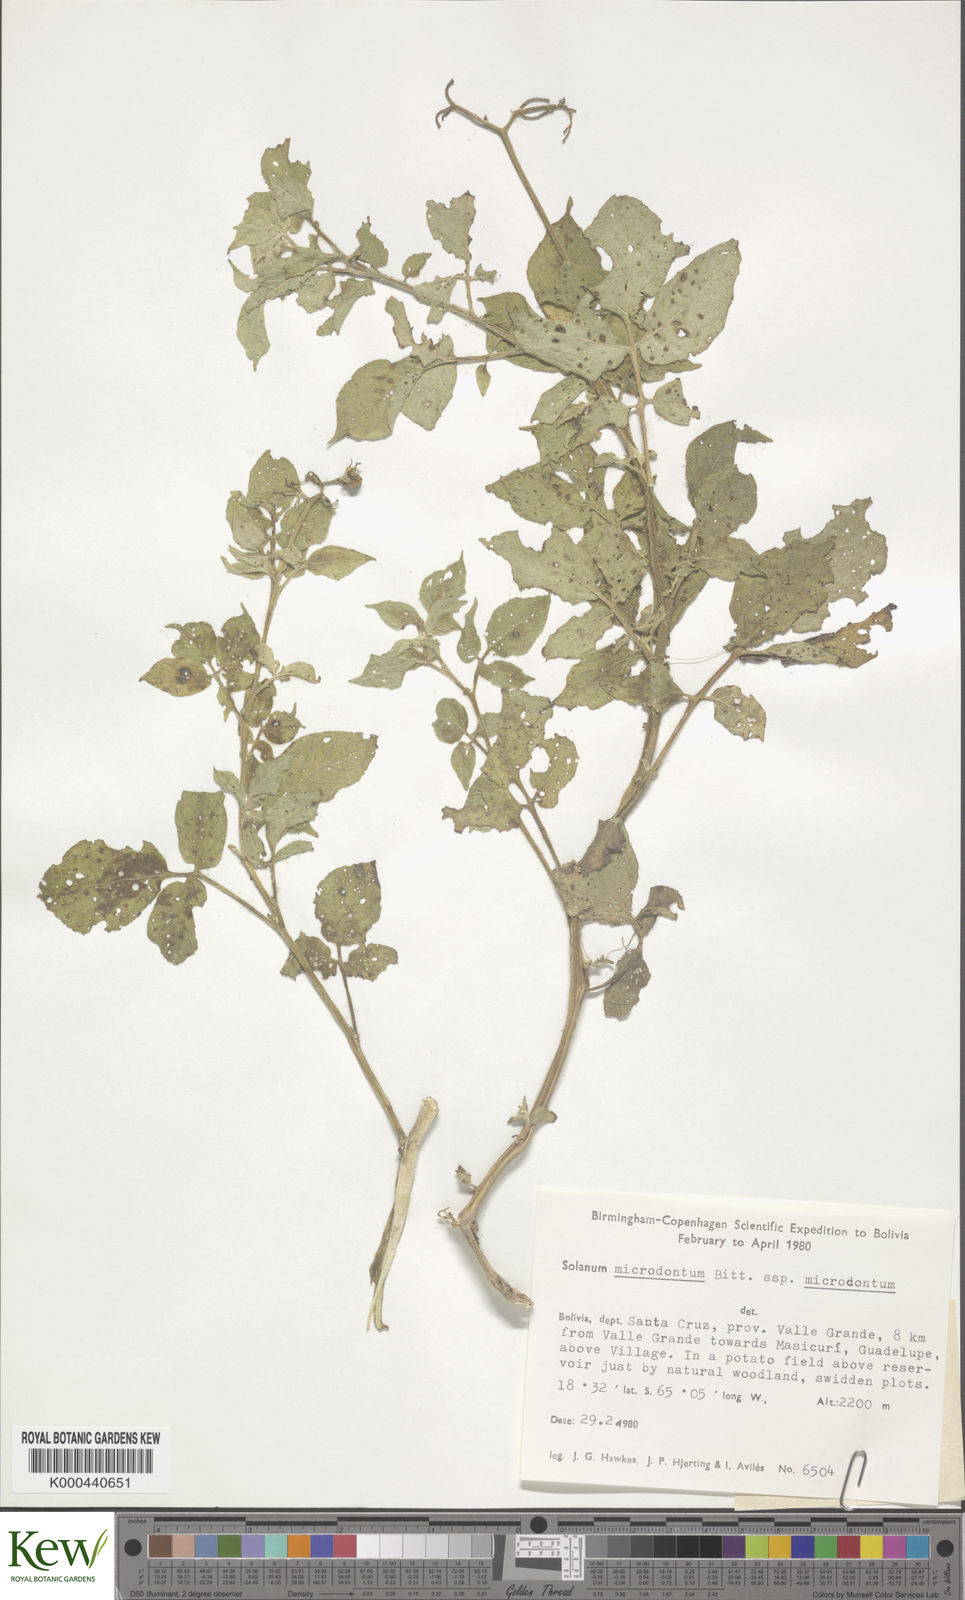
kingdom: Plantae
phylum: Tracheophyta
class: Magnoliopsida
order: Solanales
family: Solanaceae
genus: Solanum
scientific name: Solanum microdontum
